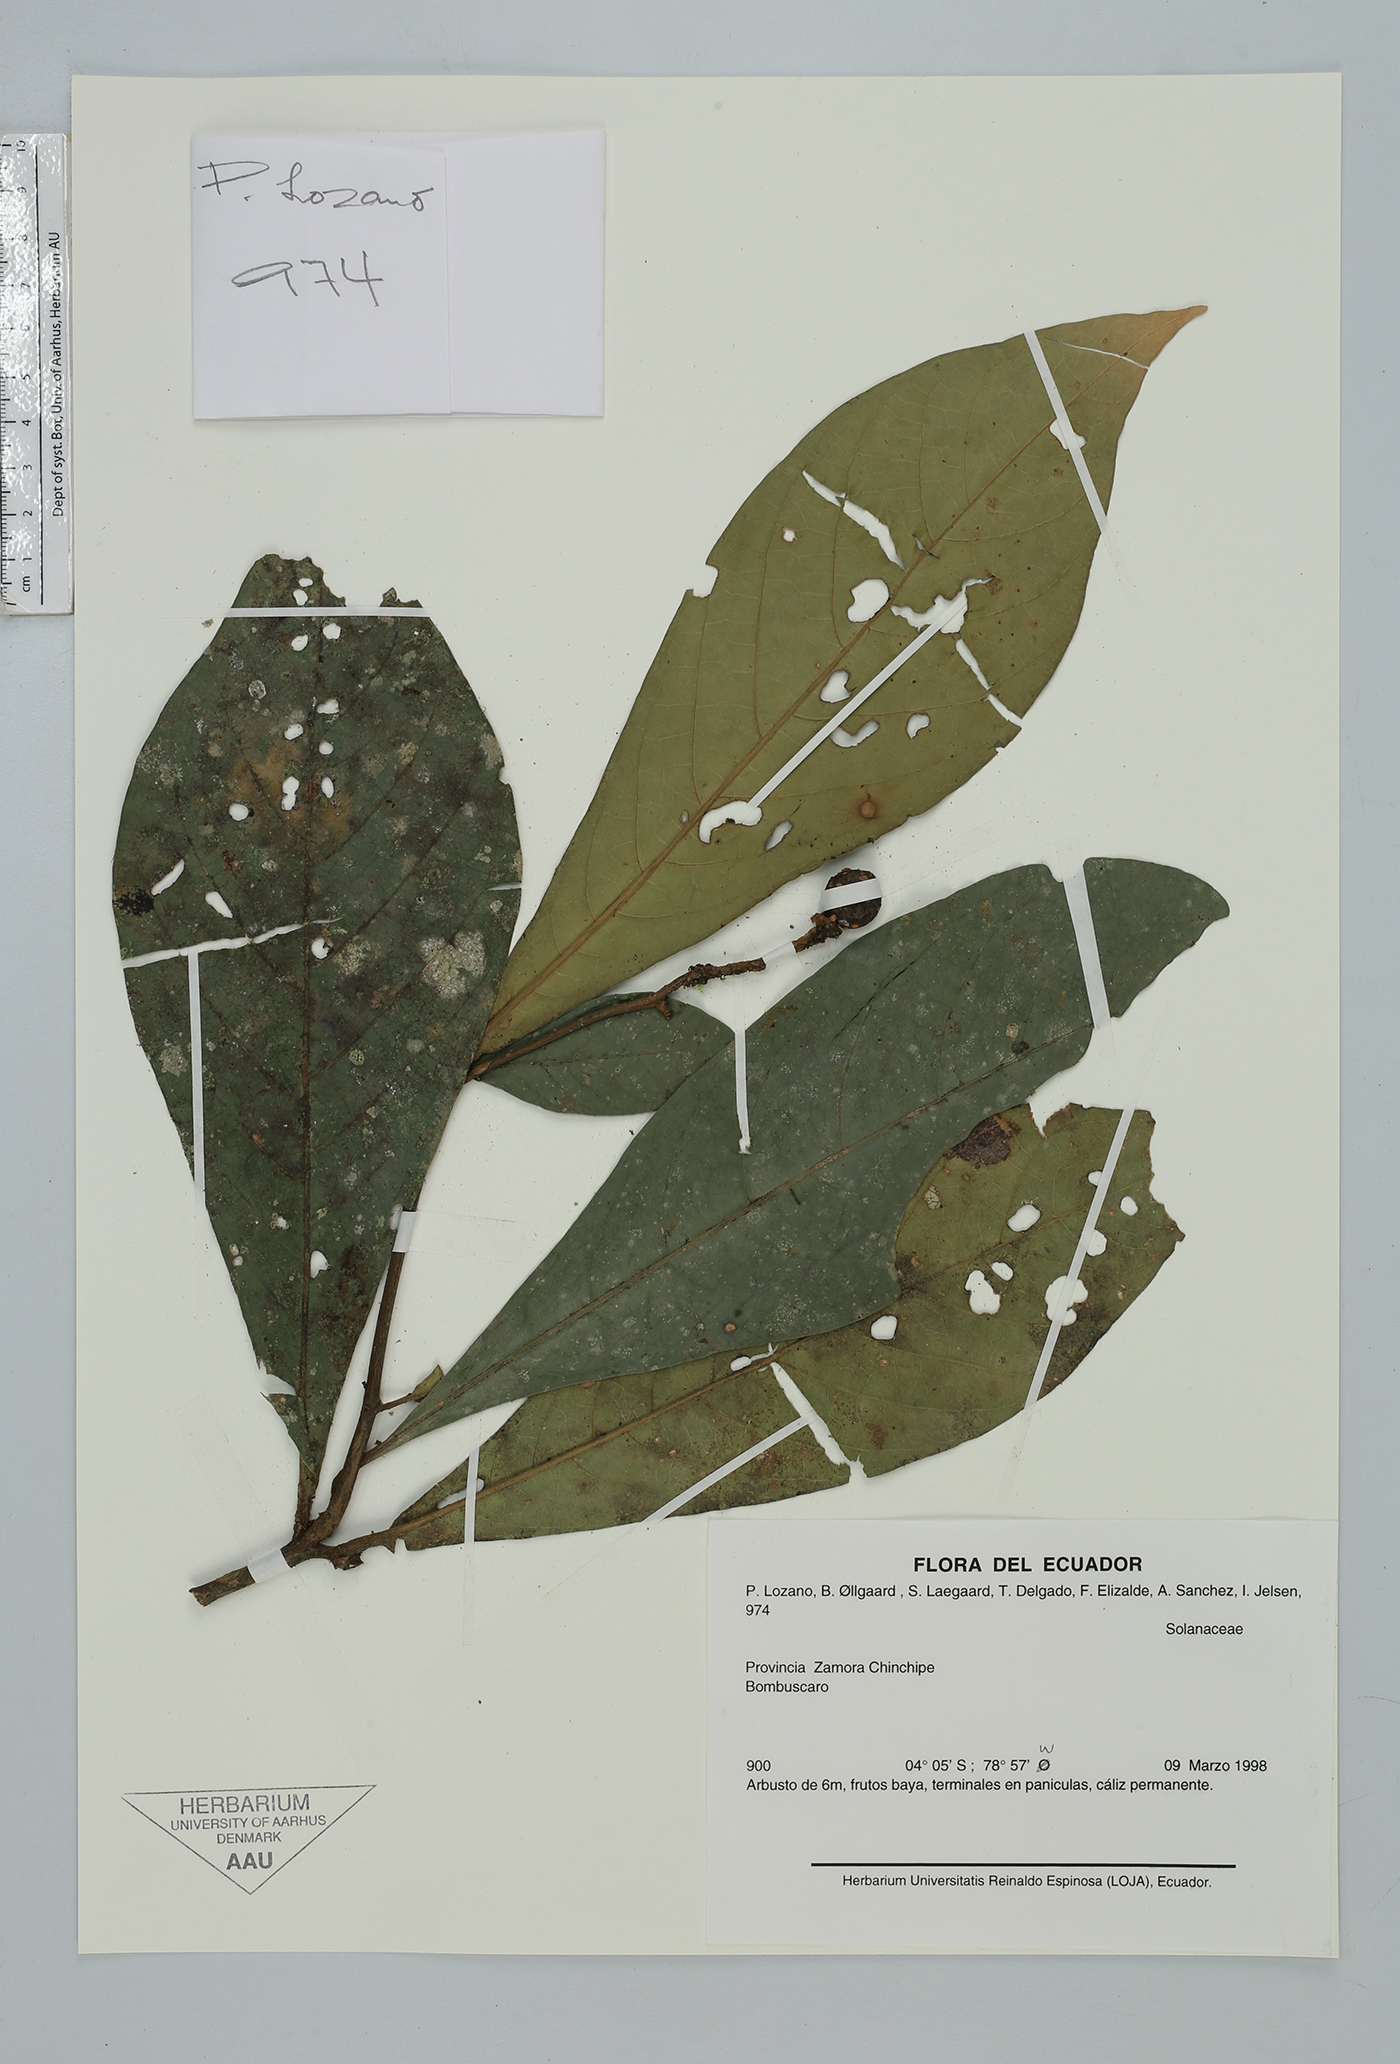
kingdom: Plantae
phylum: Tracheophyta
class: Magnoliopsida
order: Solanales
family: Solanaceae
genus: Solanum
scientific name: Solanum
